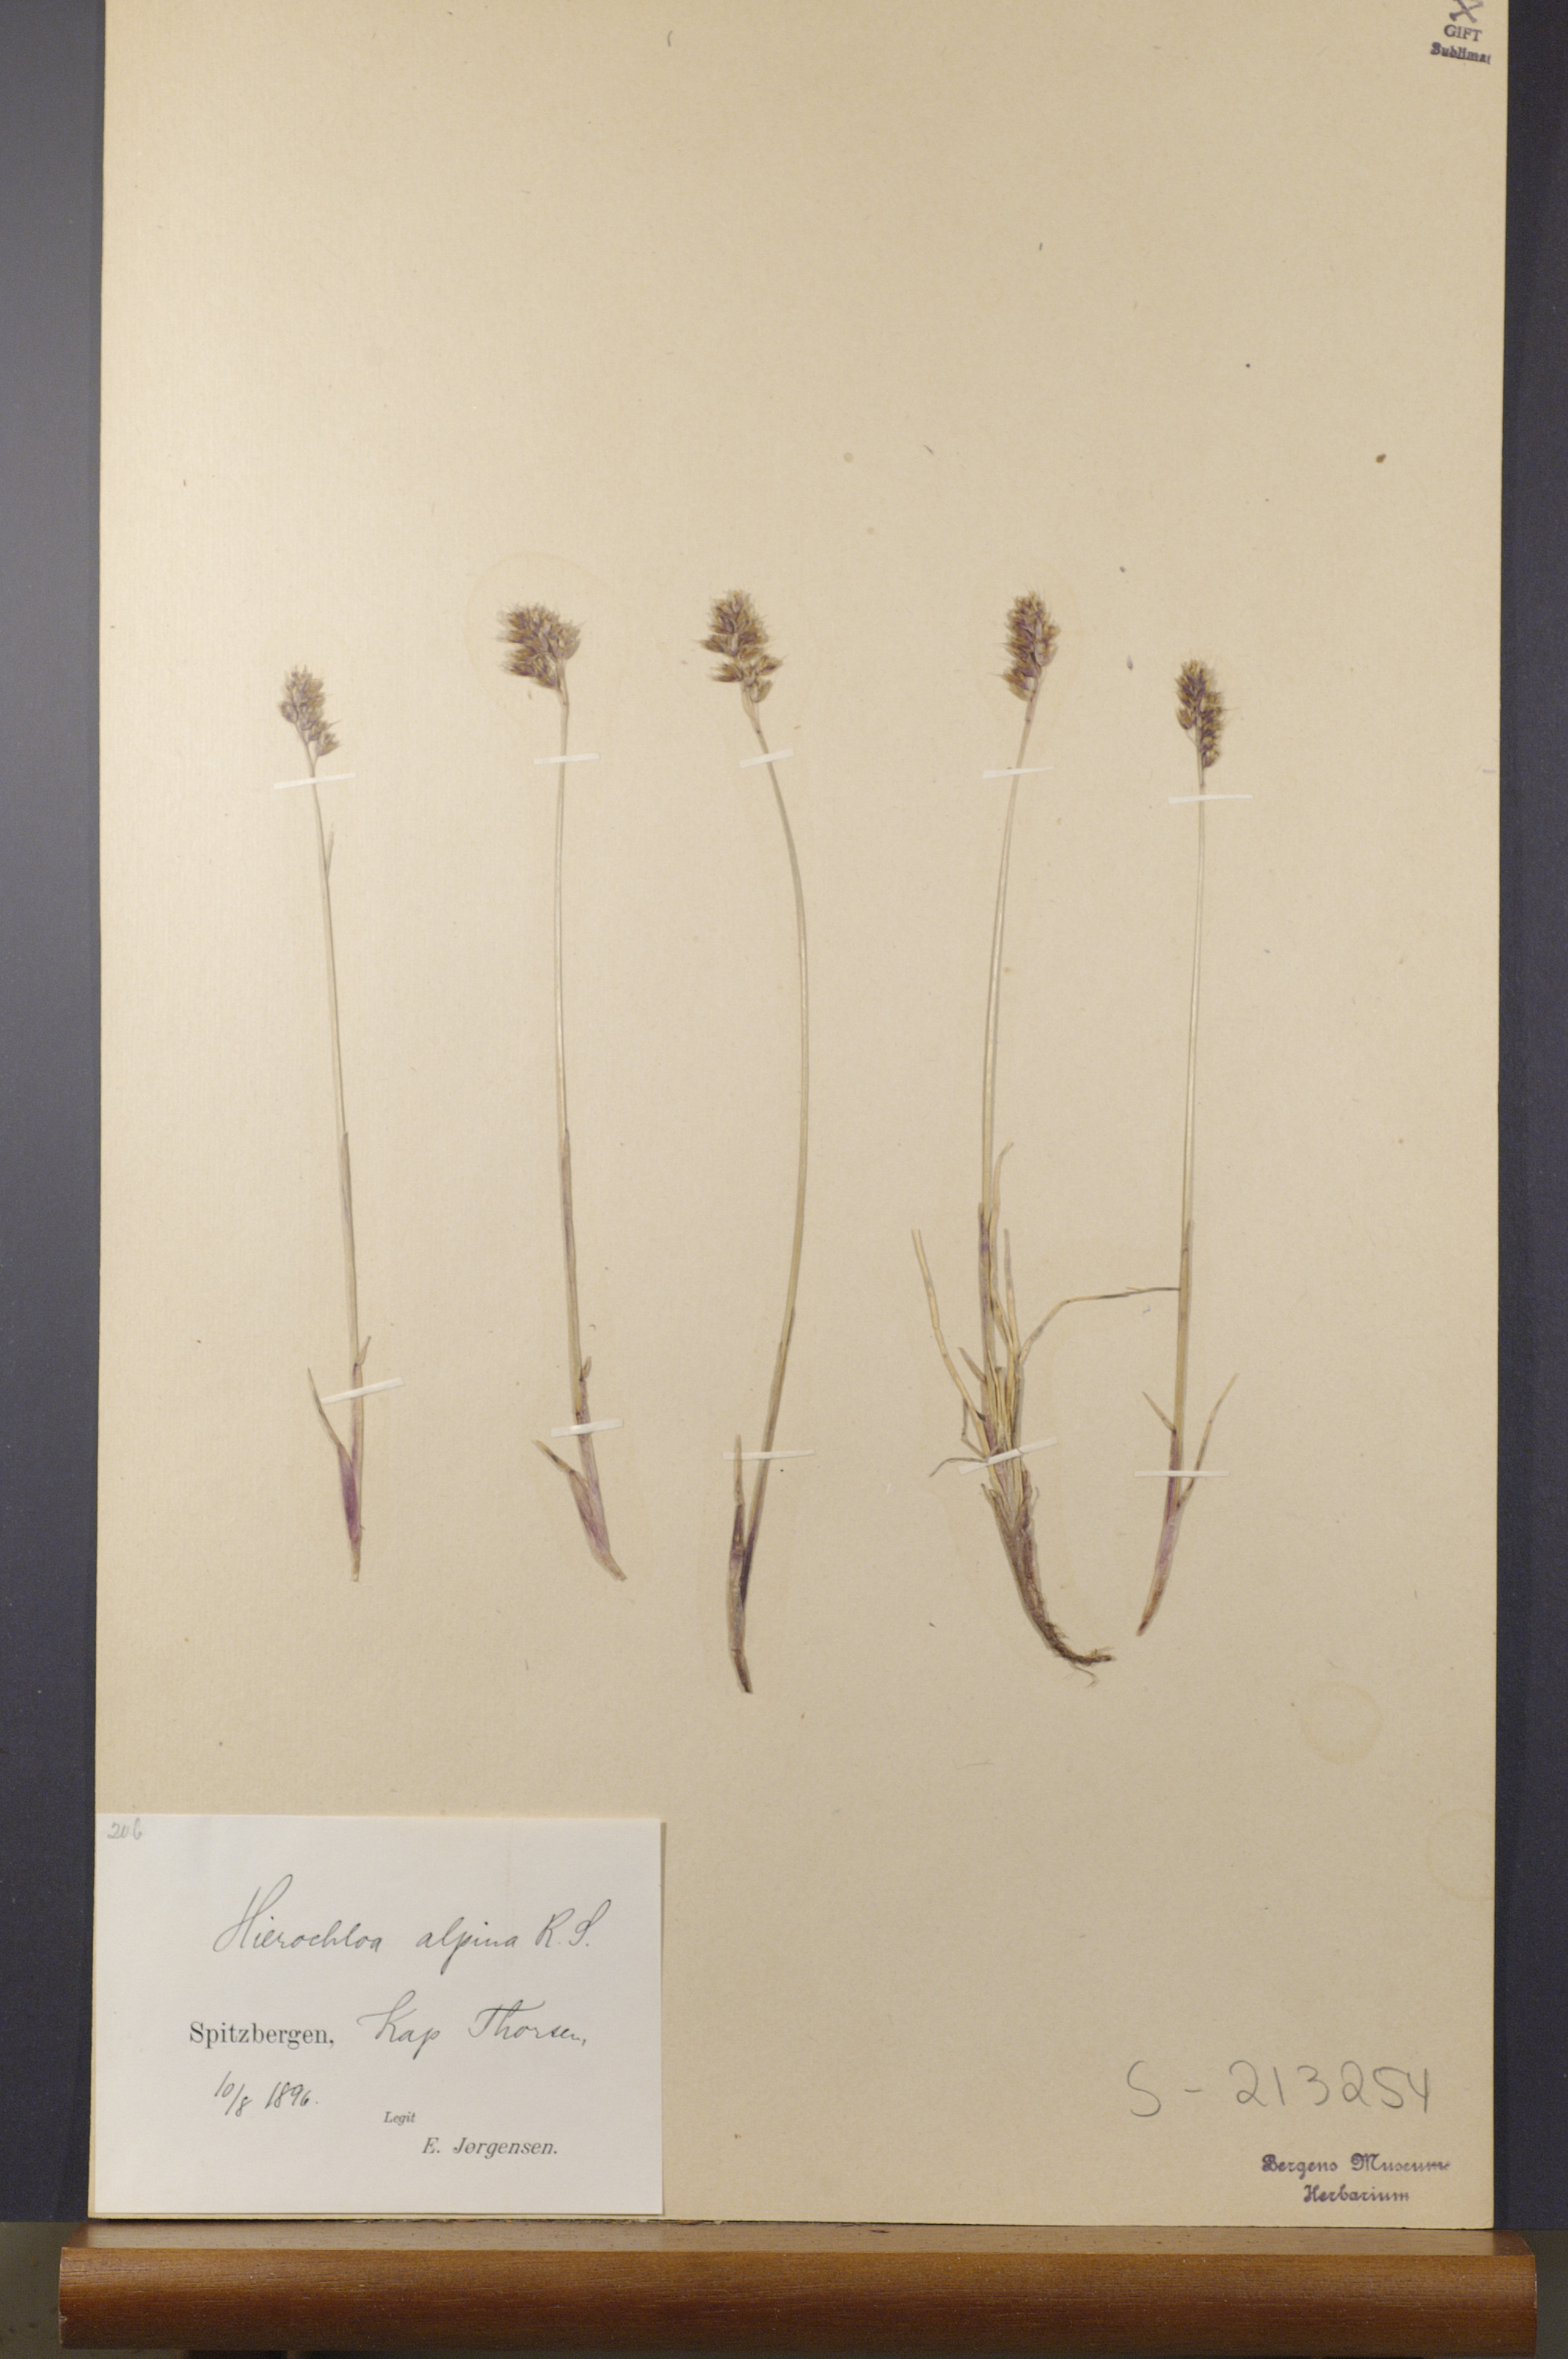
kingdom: Plantae
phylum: Tracheophyta
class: Liliopsida
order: Poales
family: Poaceae
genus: Anthoxanthum
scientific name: Anthoxanthum monticola
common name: Alpine sweetgrass
